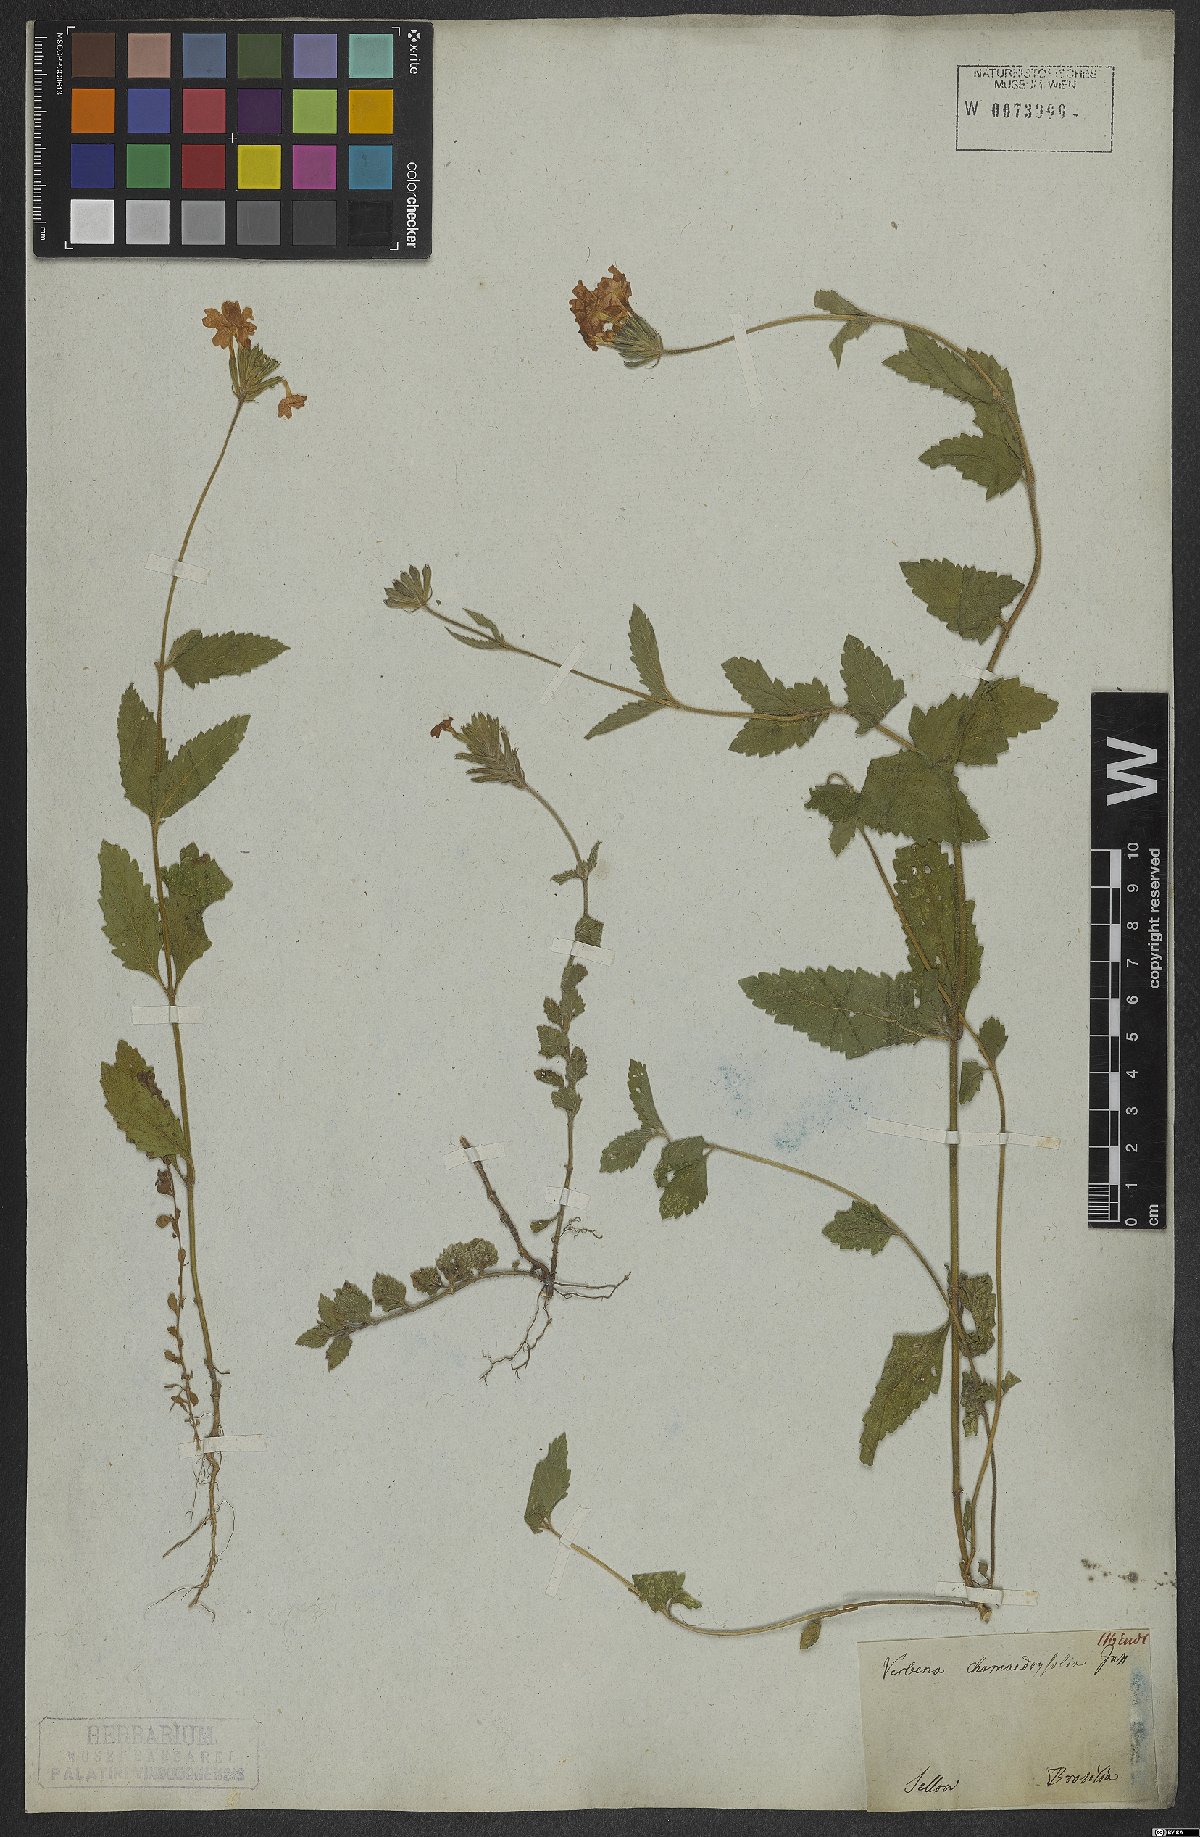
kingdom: Plantae
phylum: Tracheophyta
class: Magnoliopsida
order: Lamiales
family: Verbenaceae
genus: Verbena
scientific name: Verbena peruviana
